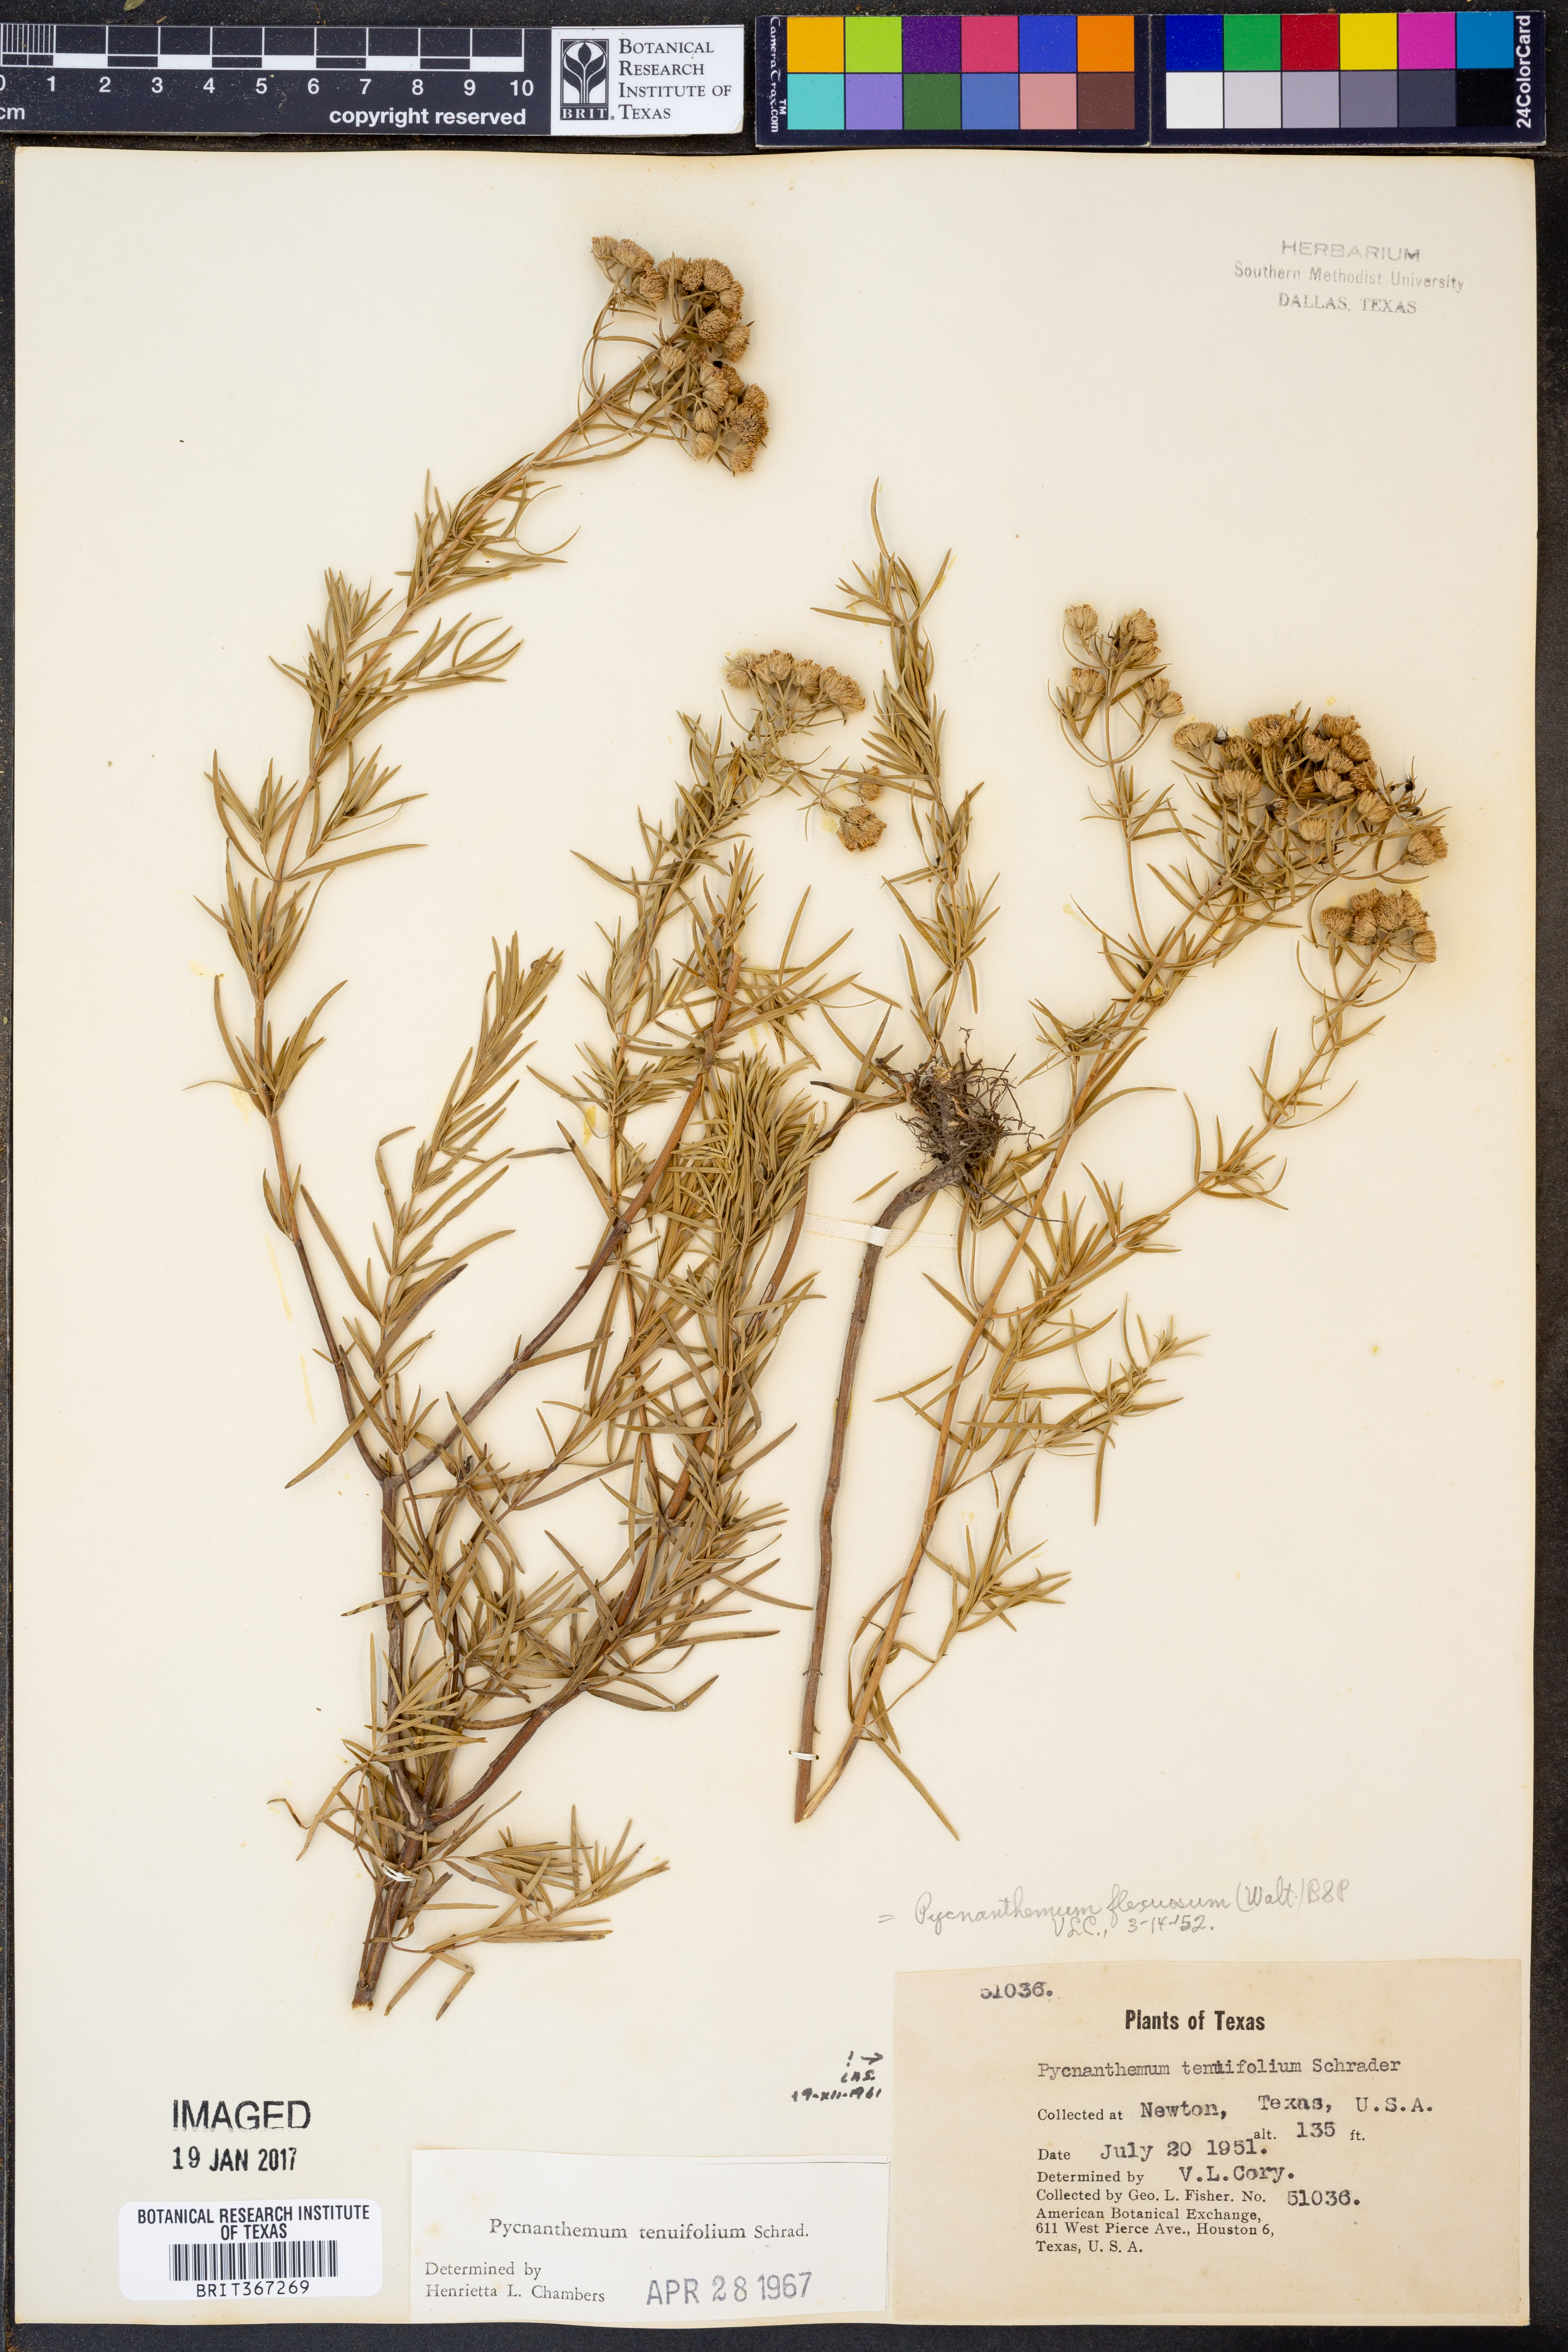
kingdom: Plantae
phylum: Tracheophyta
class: Magnoliopsida
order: Lamiales
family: Lamiaceae
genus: Pycnanthemum
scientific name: Pycnanthemum tenuifolium
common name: Narrow-leaf mountain-mint
